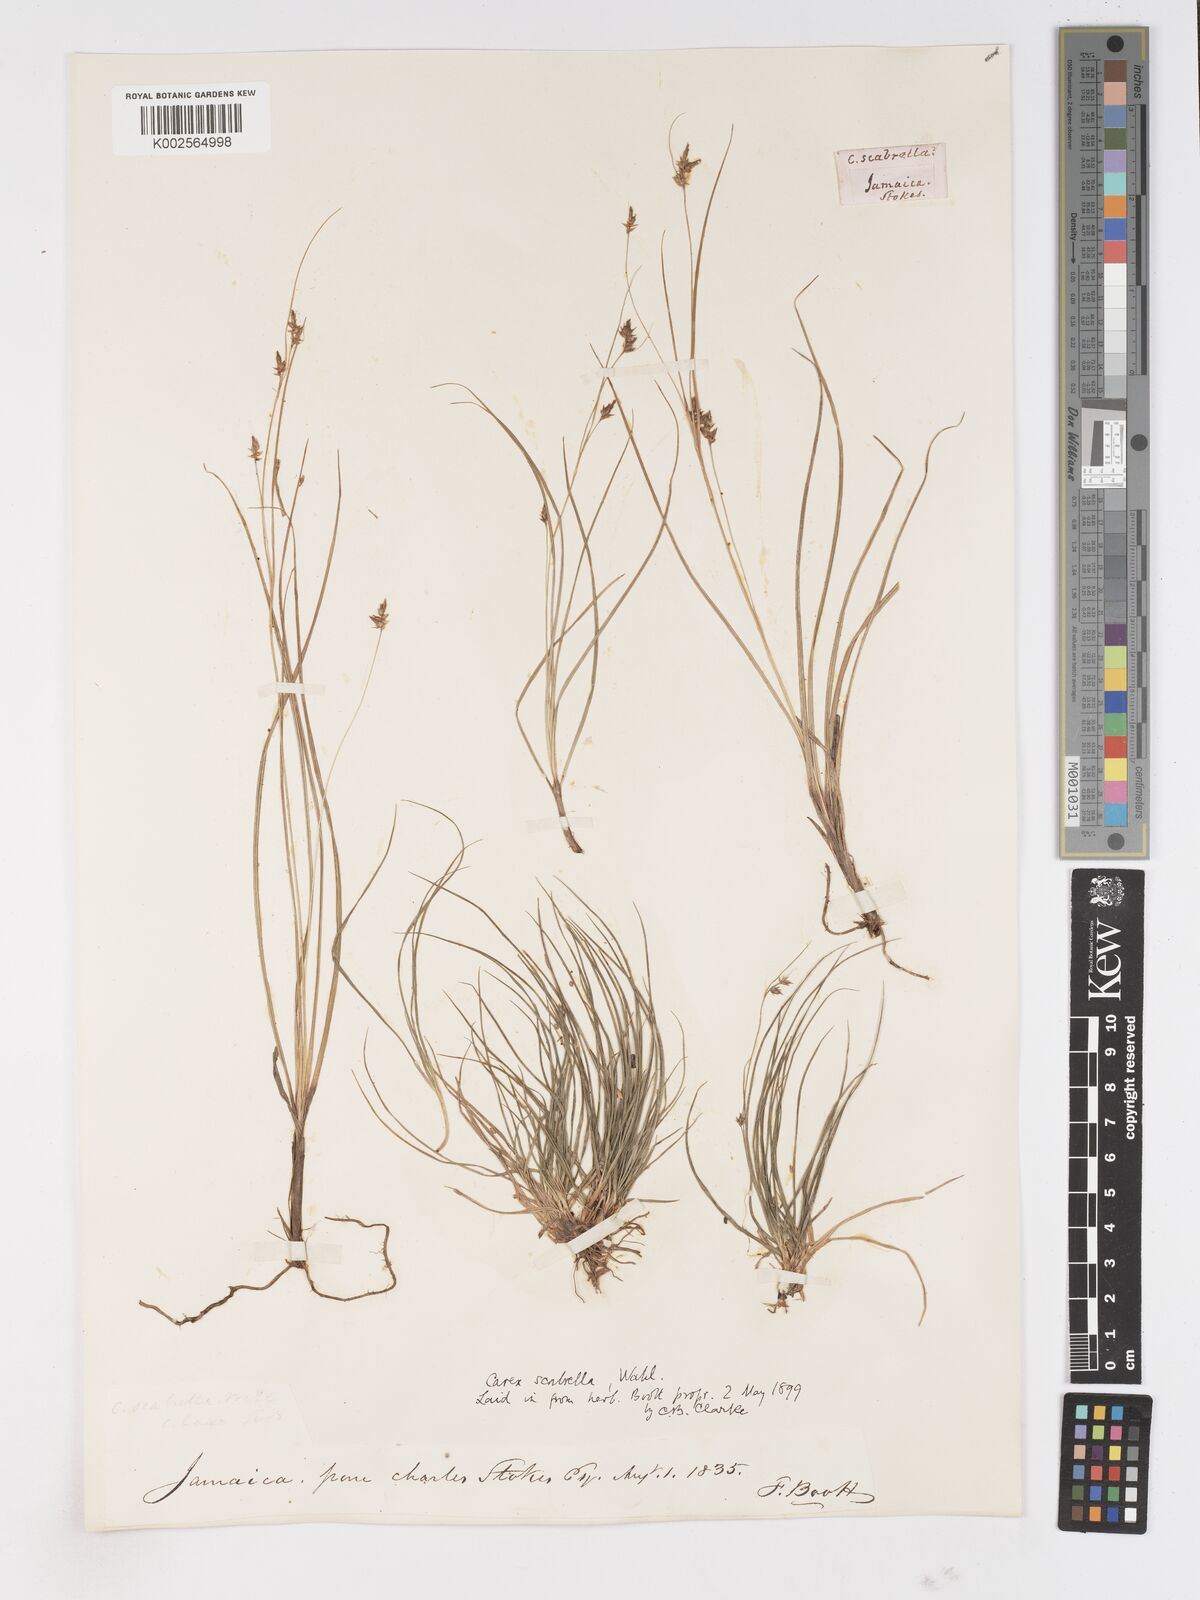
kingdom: Plantae
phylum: Tracheophyta
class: Liliopsida
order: Poales
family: Cyperaceae
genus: Carex
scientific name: Carex
